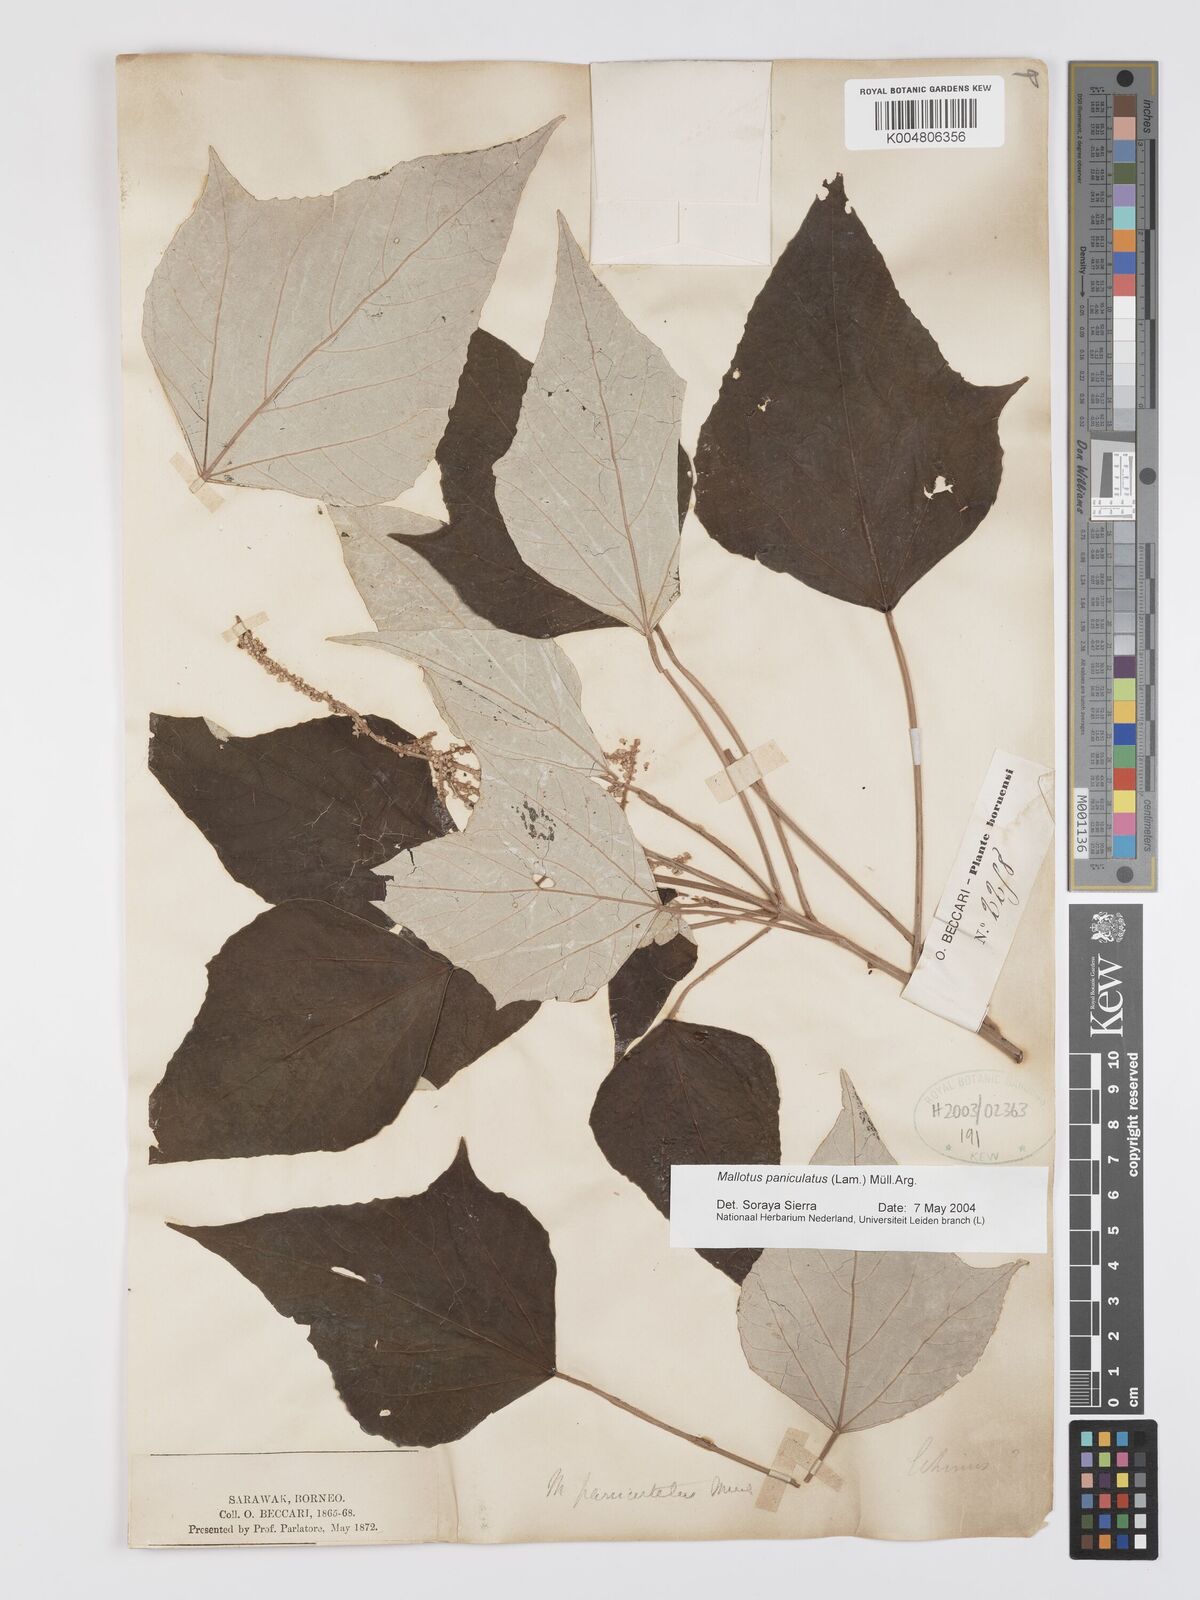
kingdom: Plantae
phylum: Tracheophyta
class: Magnoliopsida
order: Malpighiales
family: Euphorbiaceae
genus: Mallotus
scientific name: Mallotus paniculatus
